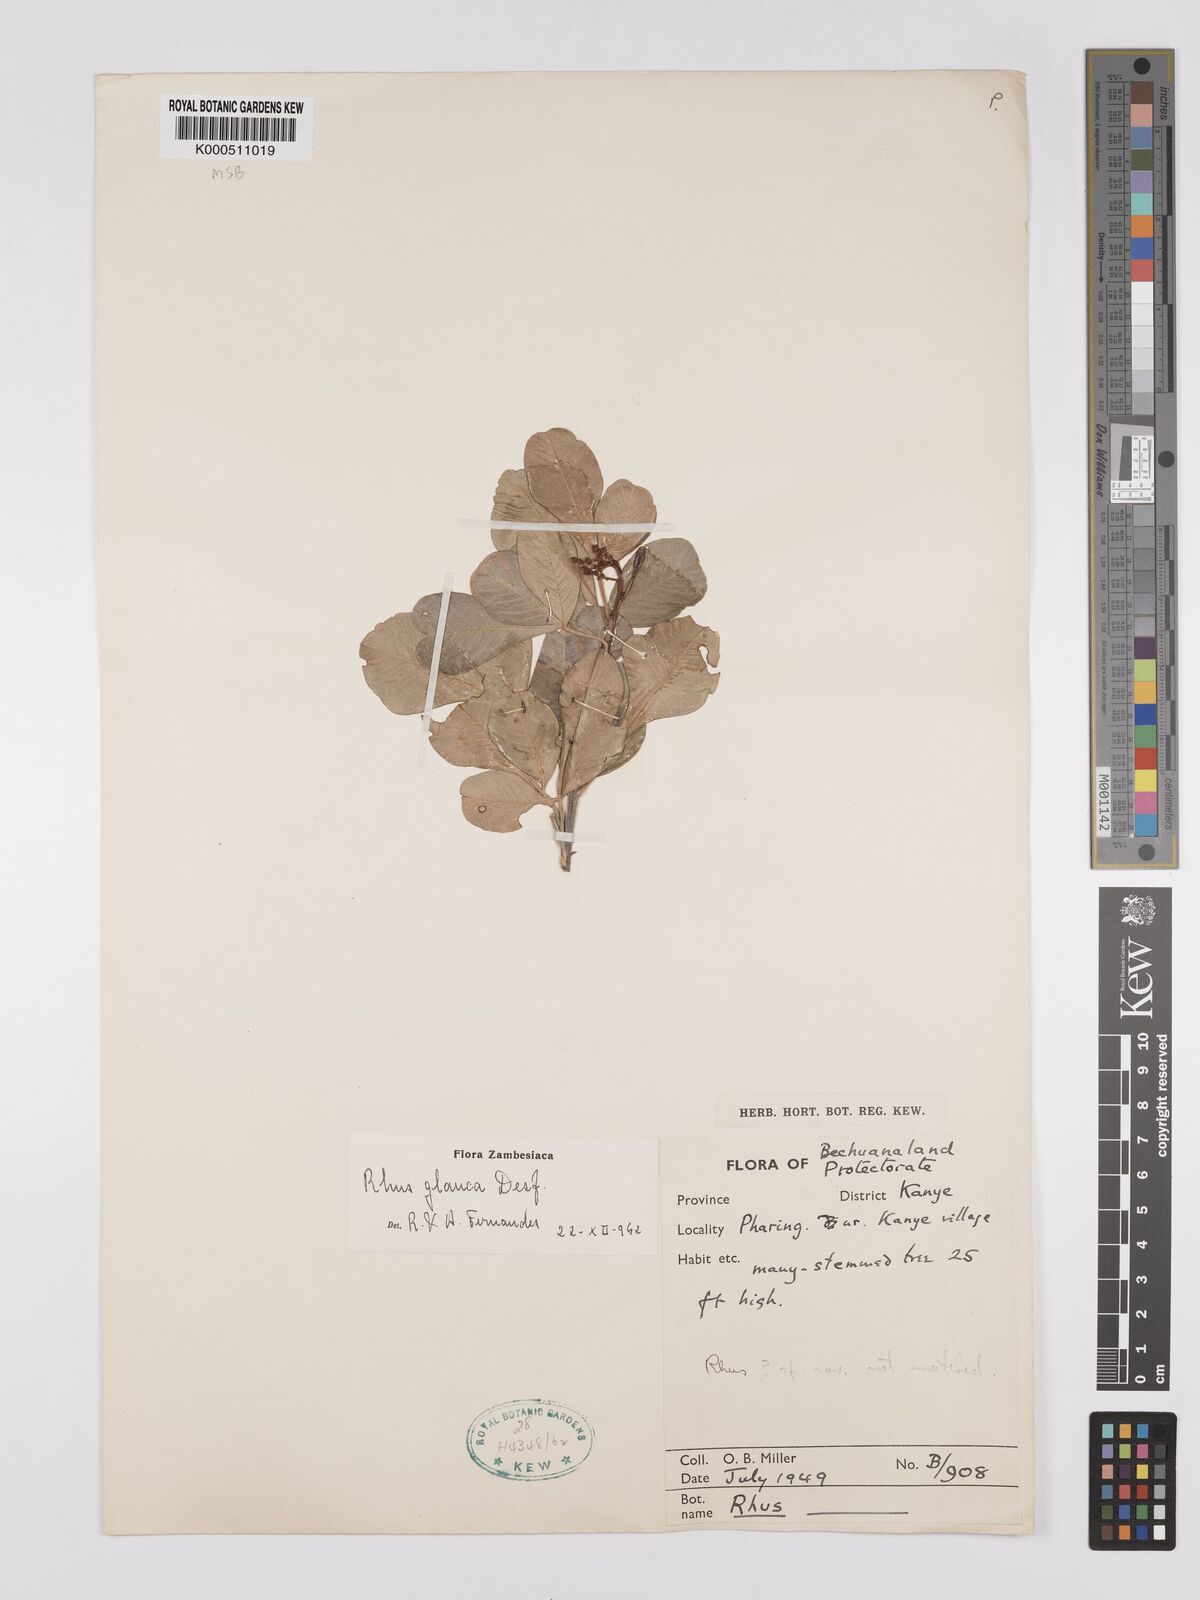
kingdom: Plantae
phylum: Tracheophyta
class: Magnoliopsida
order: Sapindales
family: Anacardiaceae
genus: Searsia
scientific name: Searsia glauca
